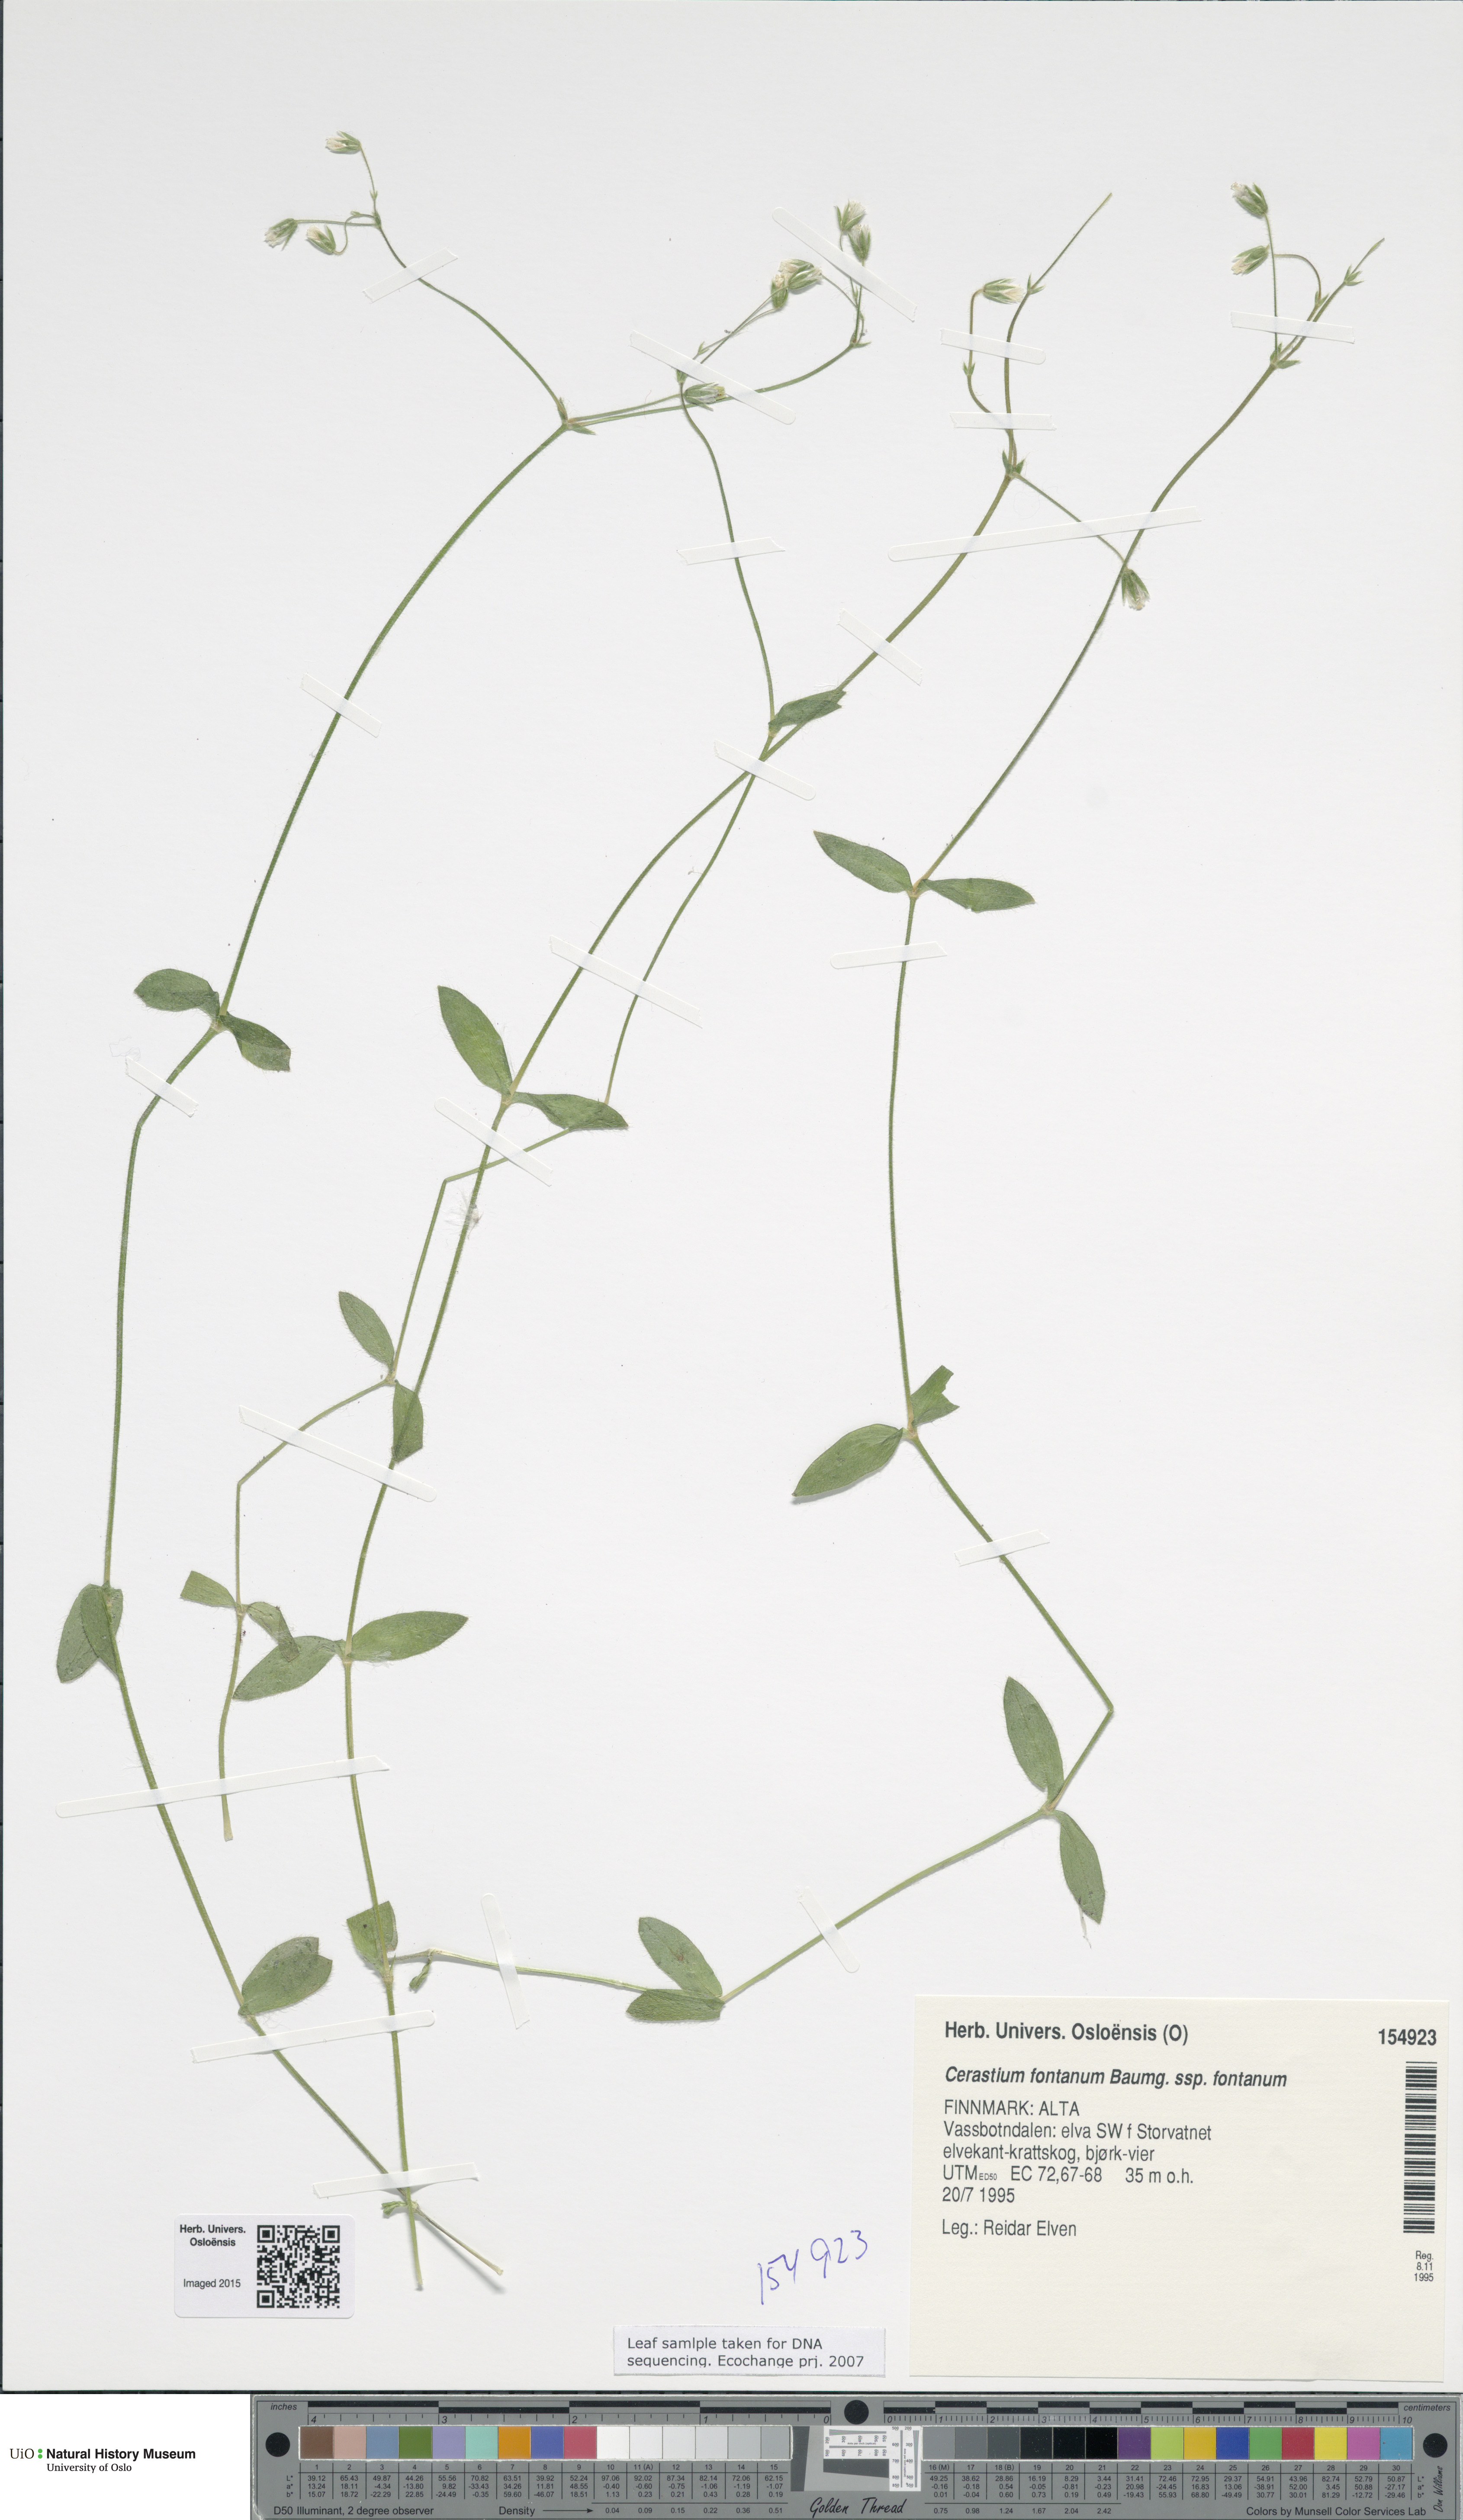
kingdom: Plantae
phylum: Tracheophyta
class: Magnoliopsida
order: Caryophyllales
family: Caryophyllaceae
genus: Cerastium
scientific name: Cerastium fontanum
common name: Common mouse-ear
